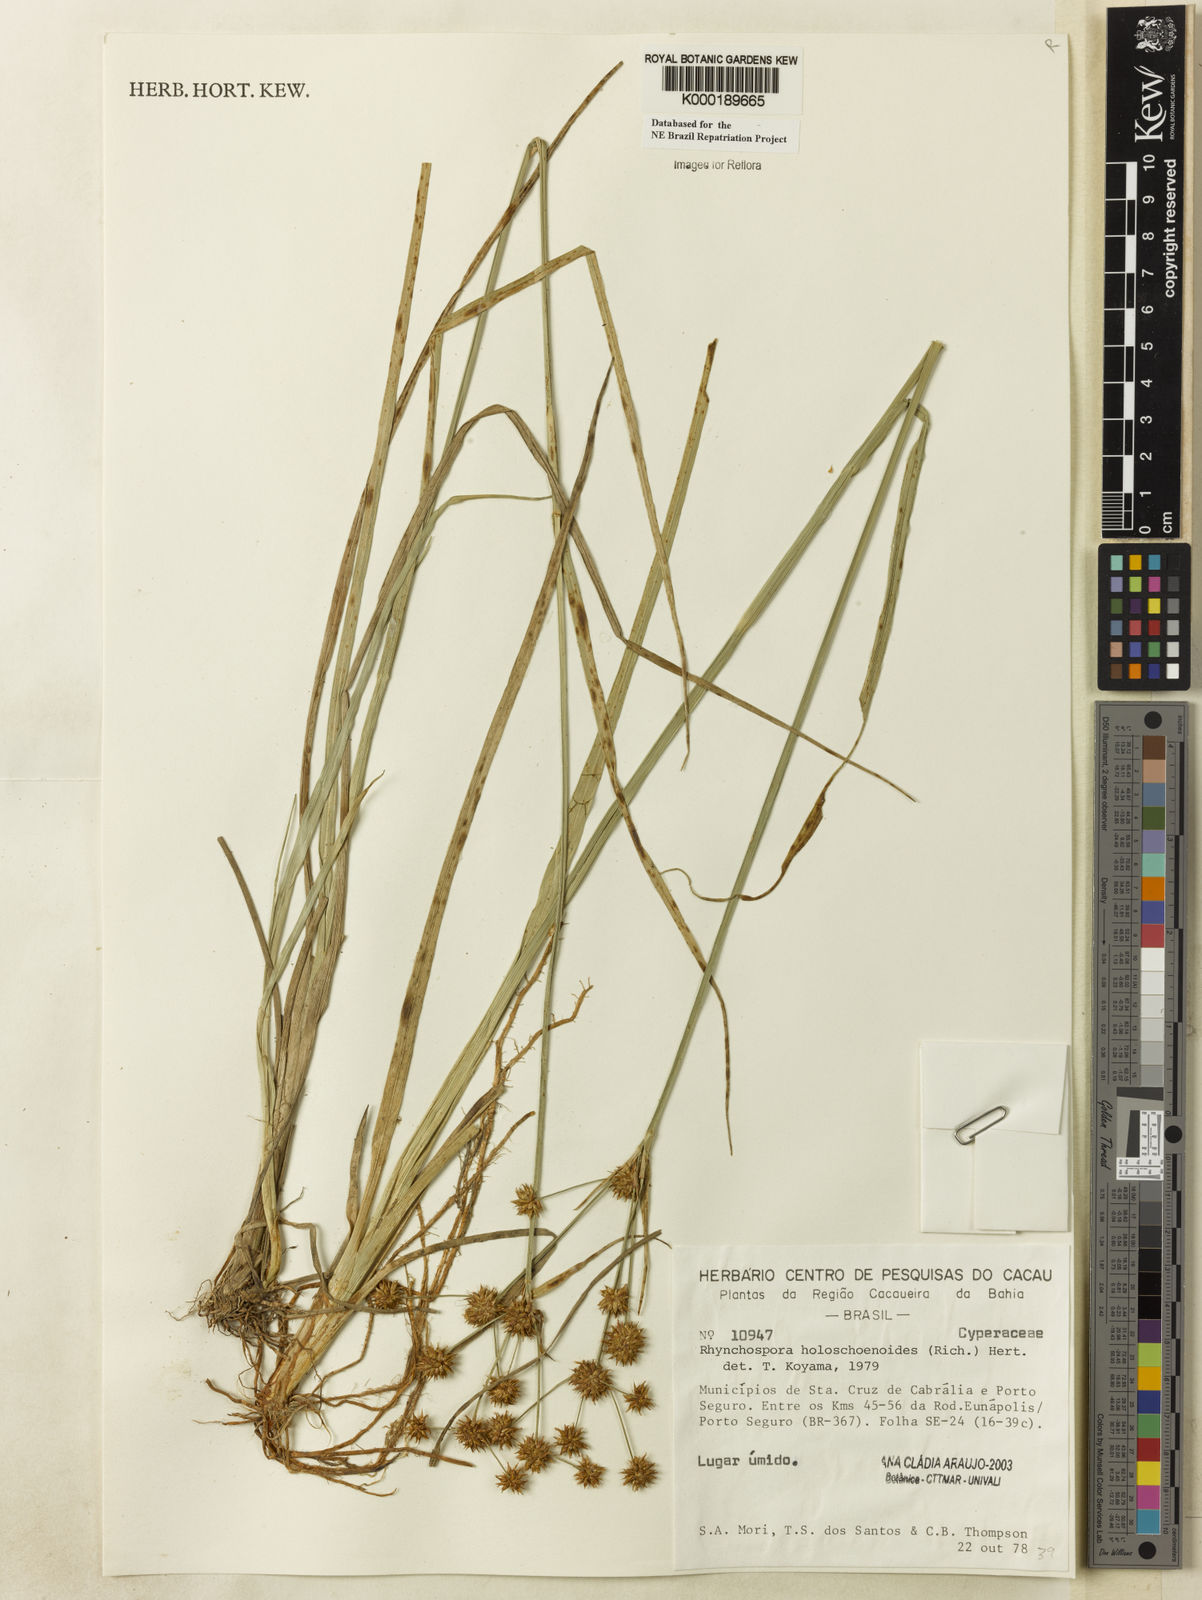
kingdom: Plantae
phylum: Tracheophyta
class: Liliopsida
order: Poales
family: Cyperaceae
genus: Rhynchospora
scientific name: Rhynchospora holoschoenoides
